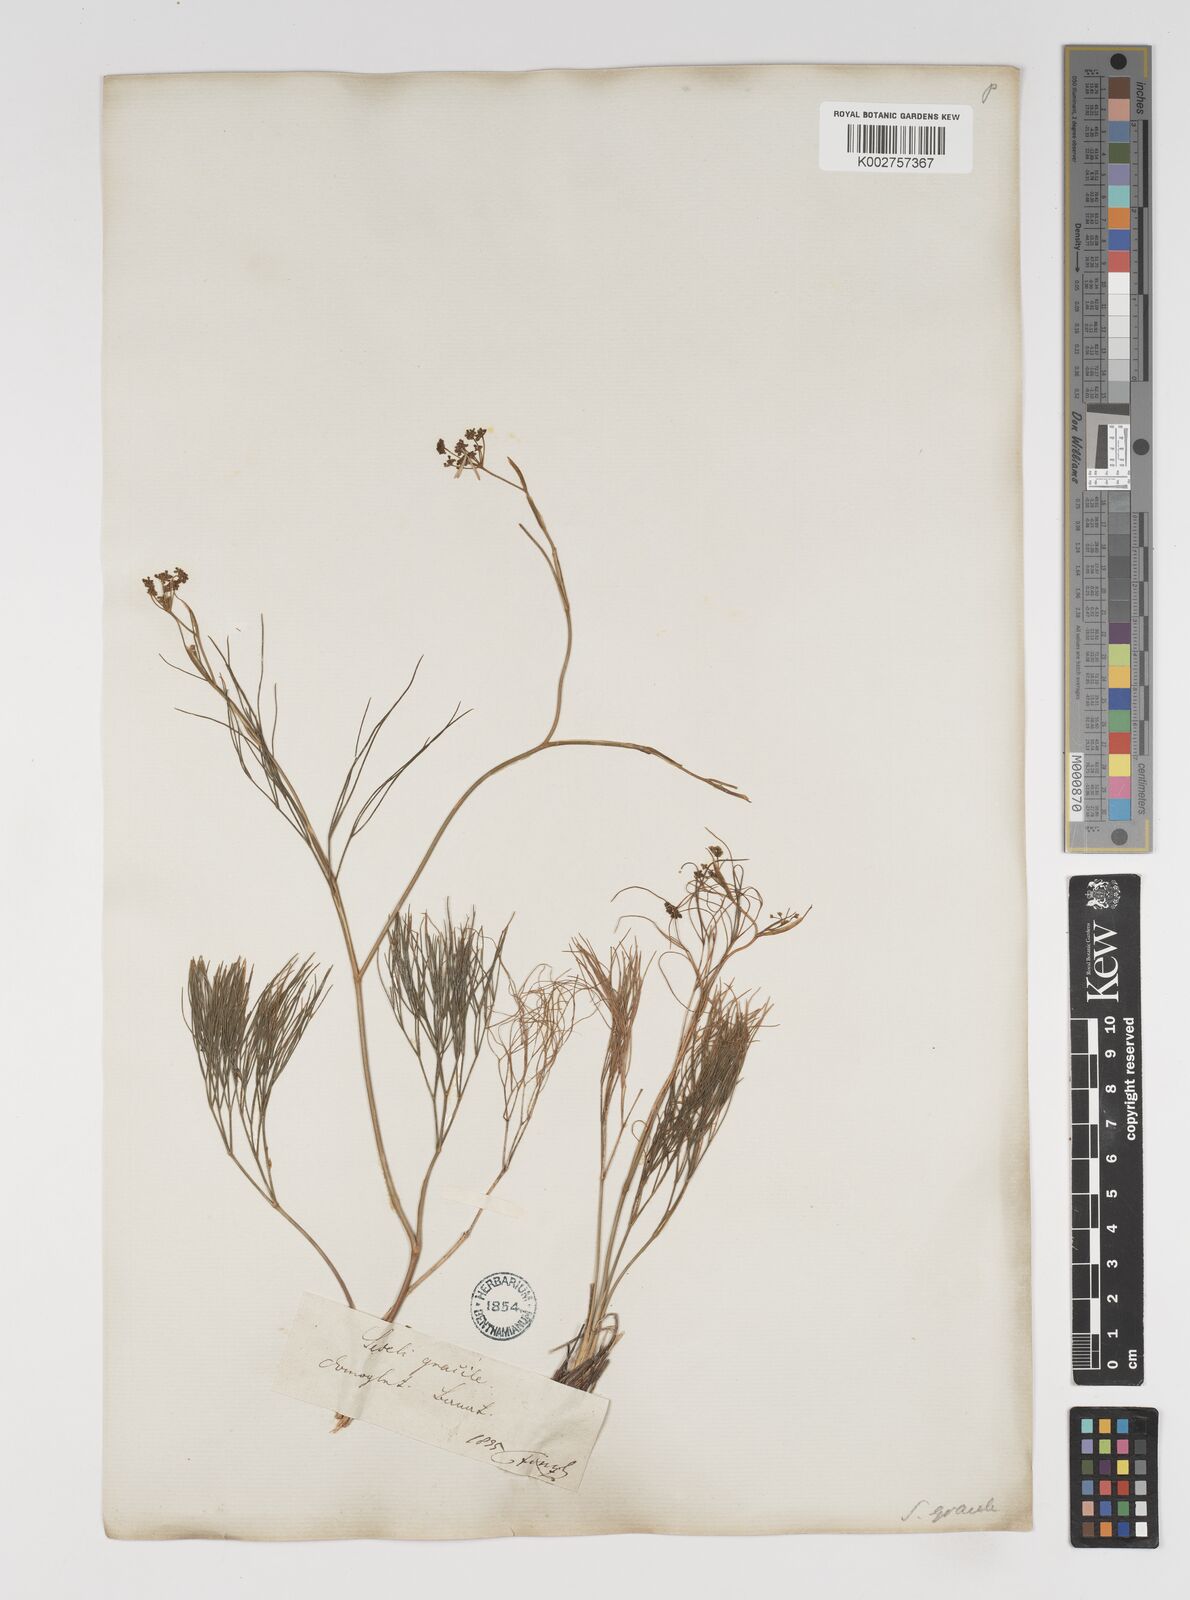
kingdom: Plantae
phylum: Tracheophyta
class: Magnoliopsida
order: Apiales
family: Apiaceae
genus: Seseli
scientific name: Seseli gracile
